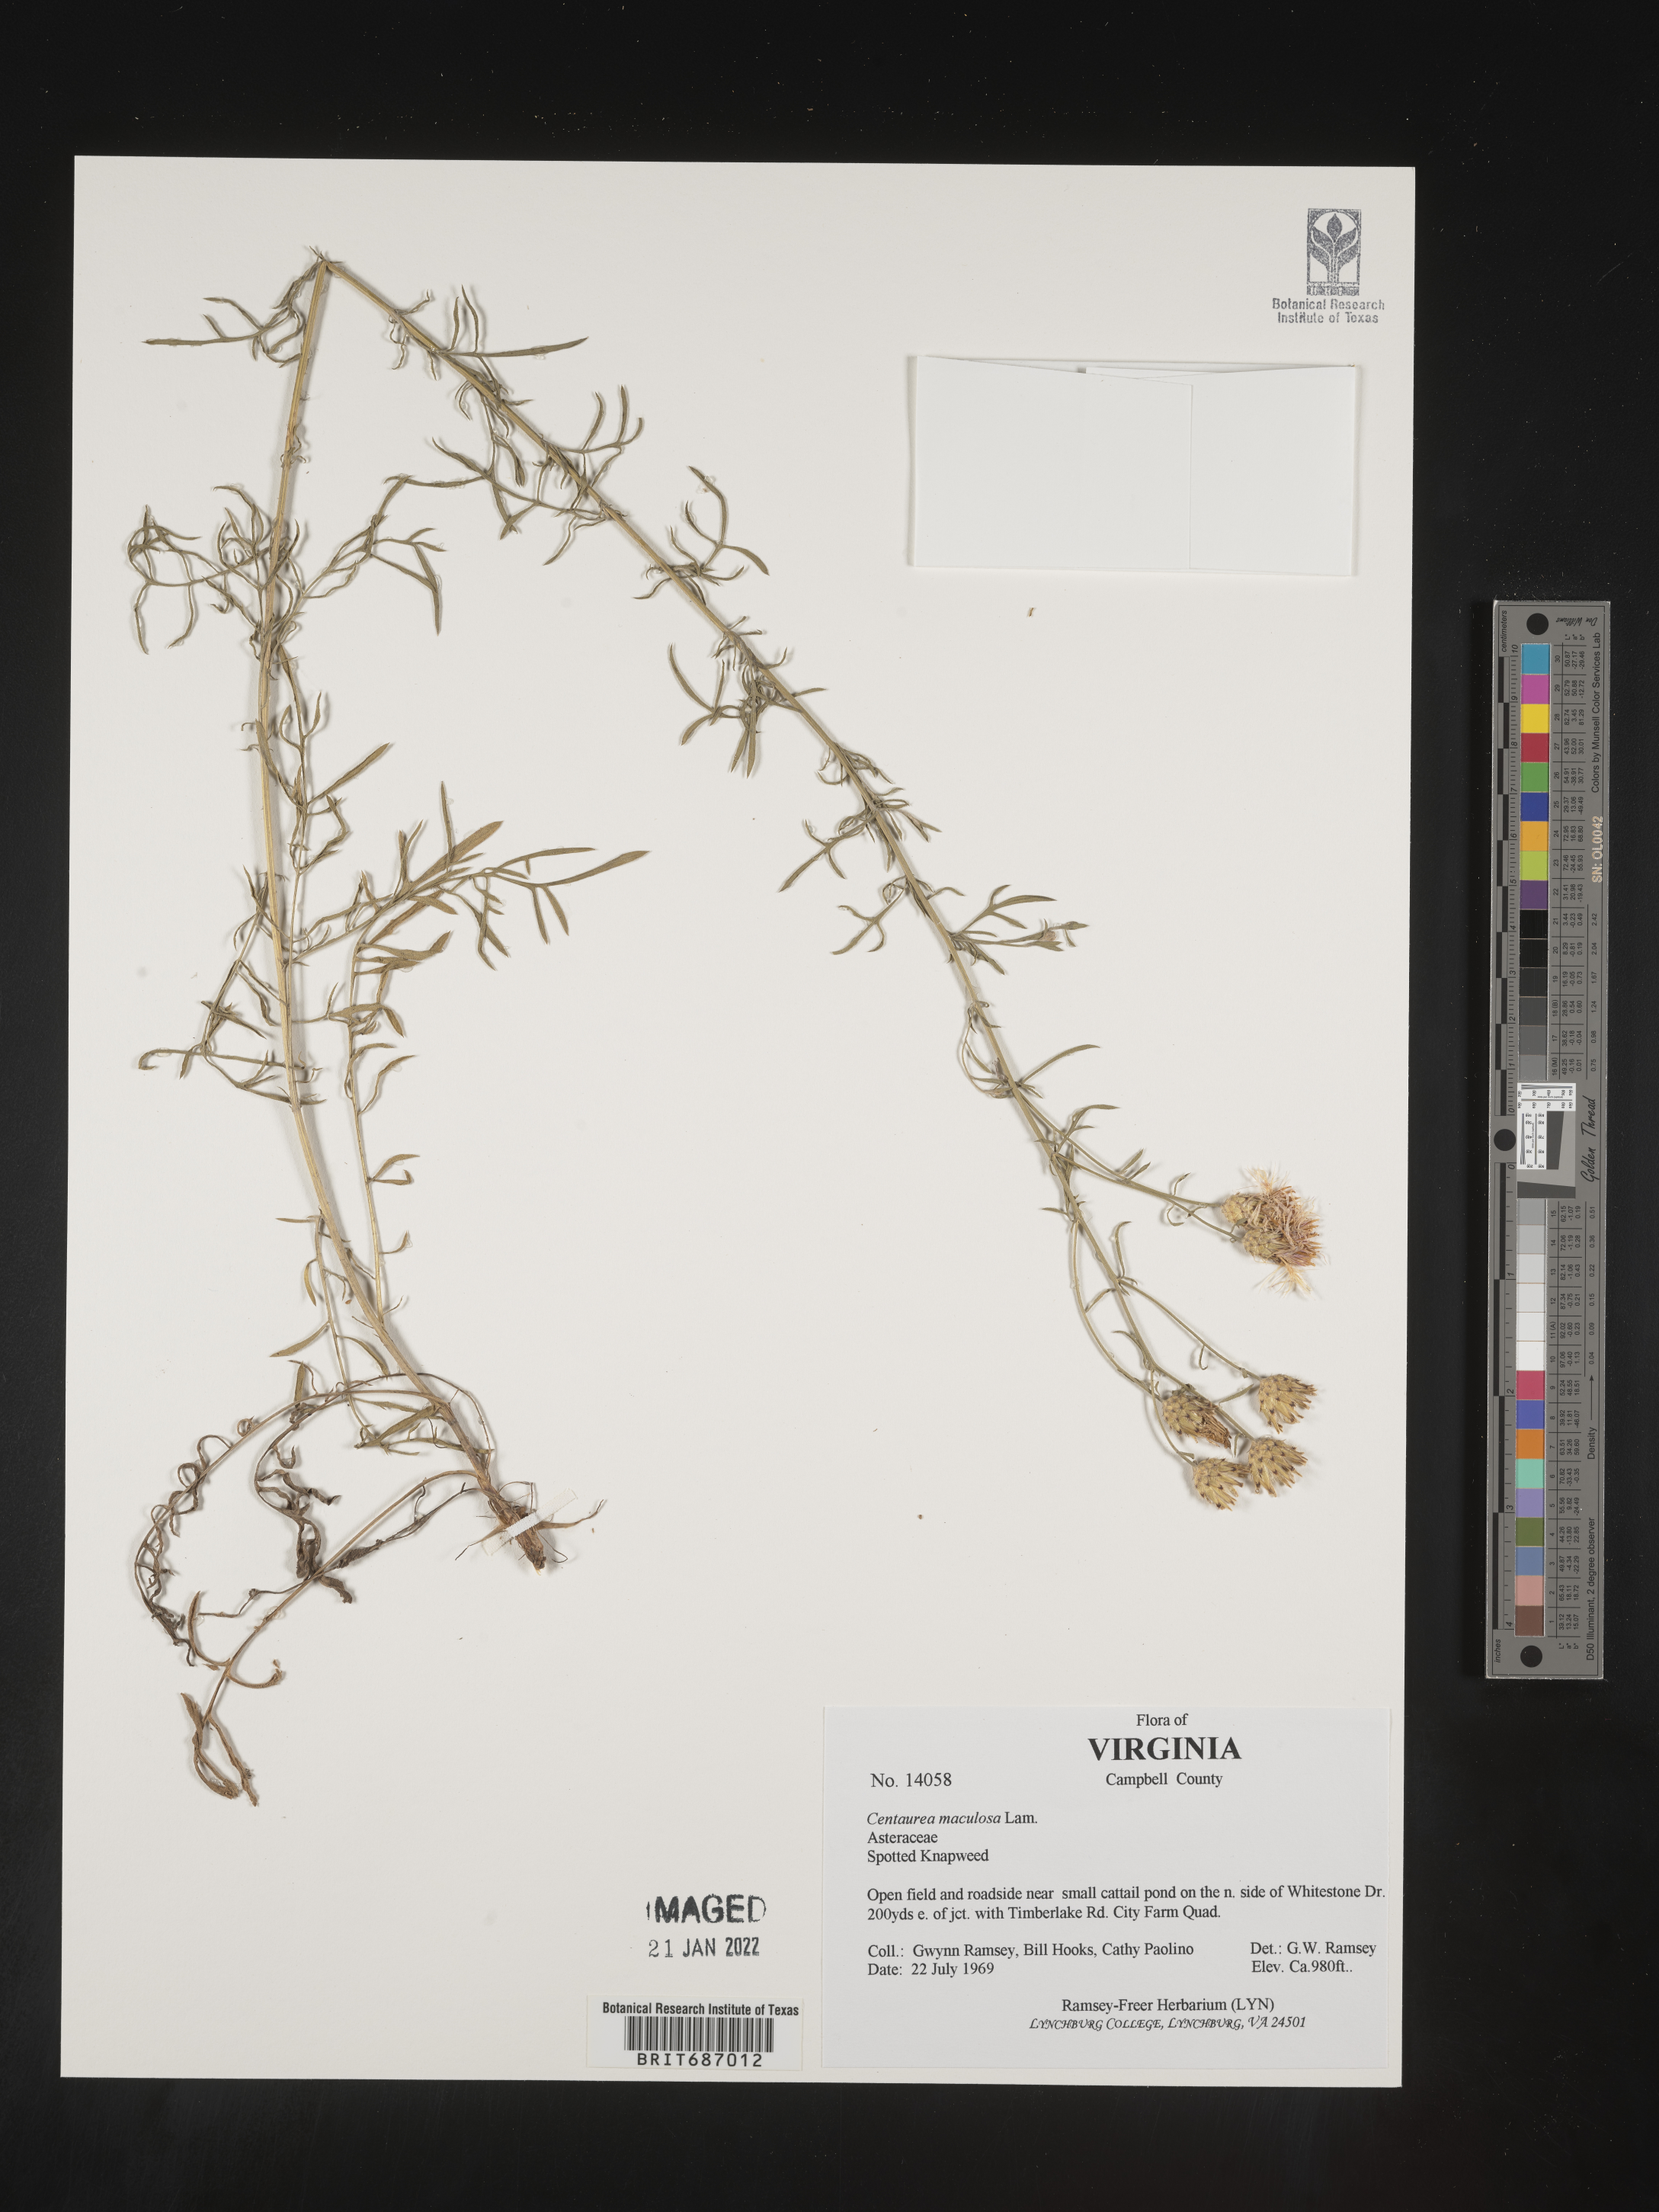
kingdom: Plantae
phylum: Tracheophyta
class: Magnoliopsida
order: Asterales
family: Asteraceae
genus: Centaurea
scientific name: Centaurea
